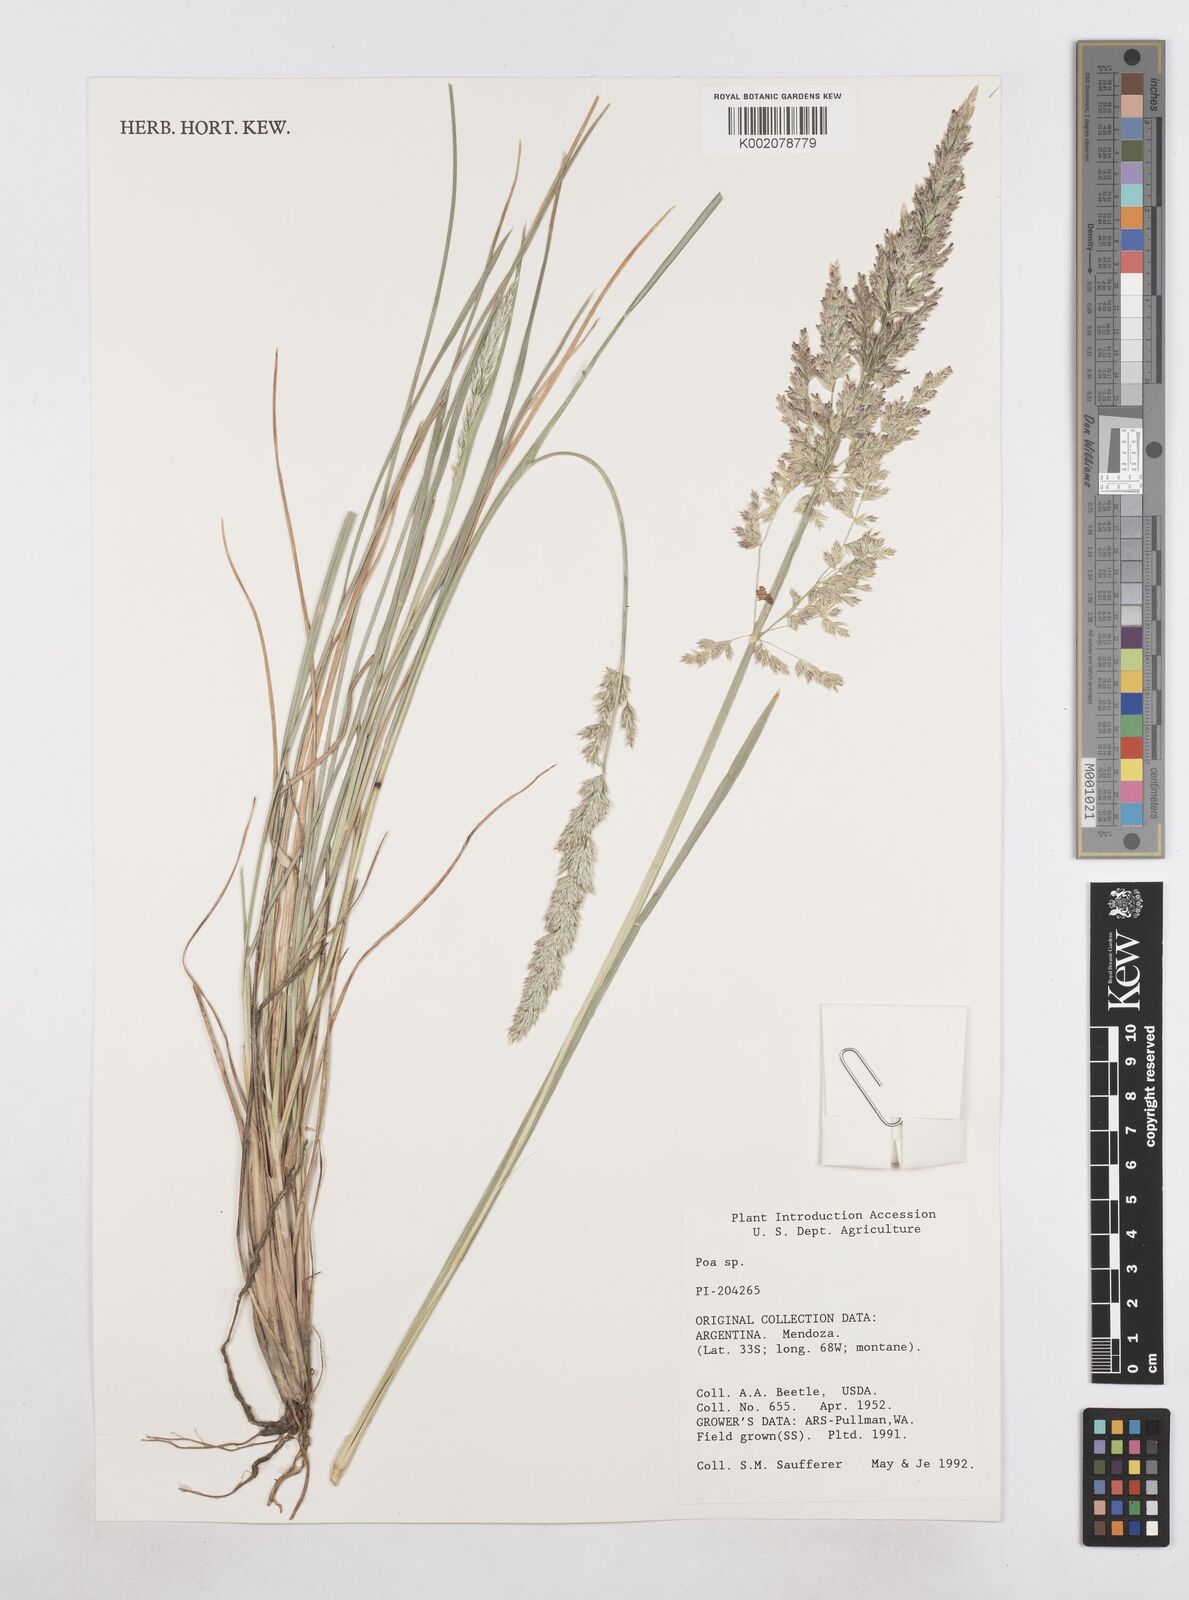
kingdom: Plantae
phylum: Tracheophyta
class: Liliopsida
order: Poales
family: Poaceae
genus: Poa
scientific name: Poa
